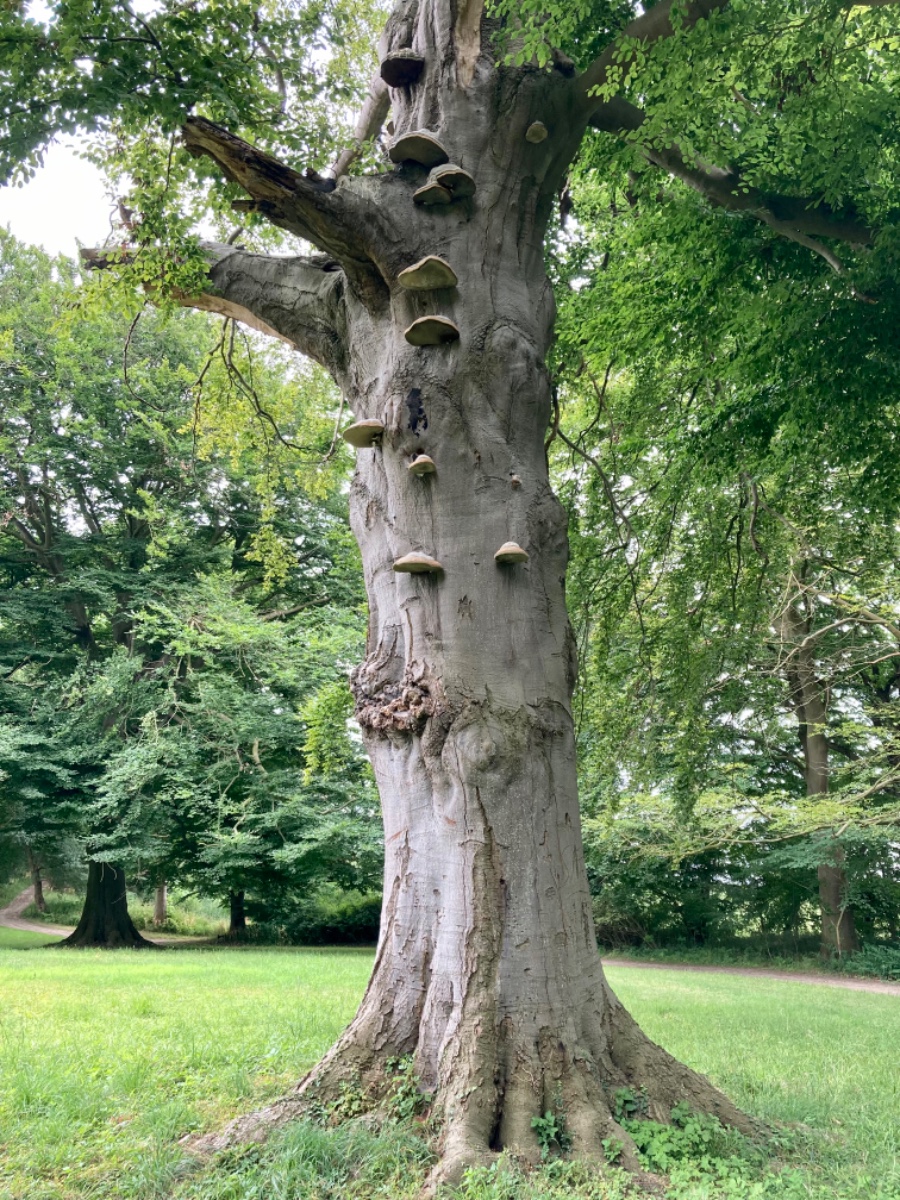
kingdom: Fungi
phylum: Basidiomycota
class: Agaricomycetes
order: Polyporales
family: Polyporaceae
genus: Fomes
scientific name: Fomes fomentarius
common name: tøndersvamp
